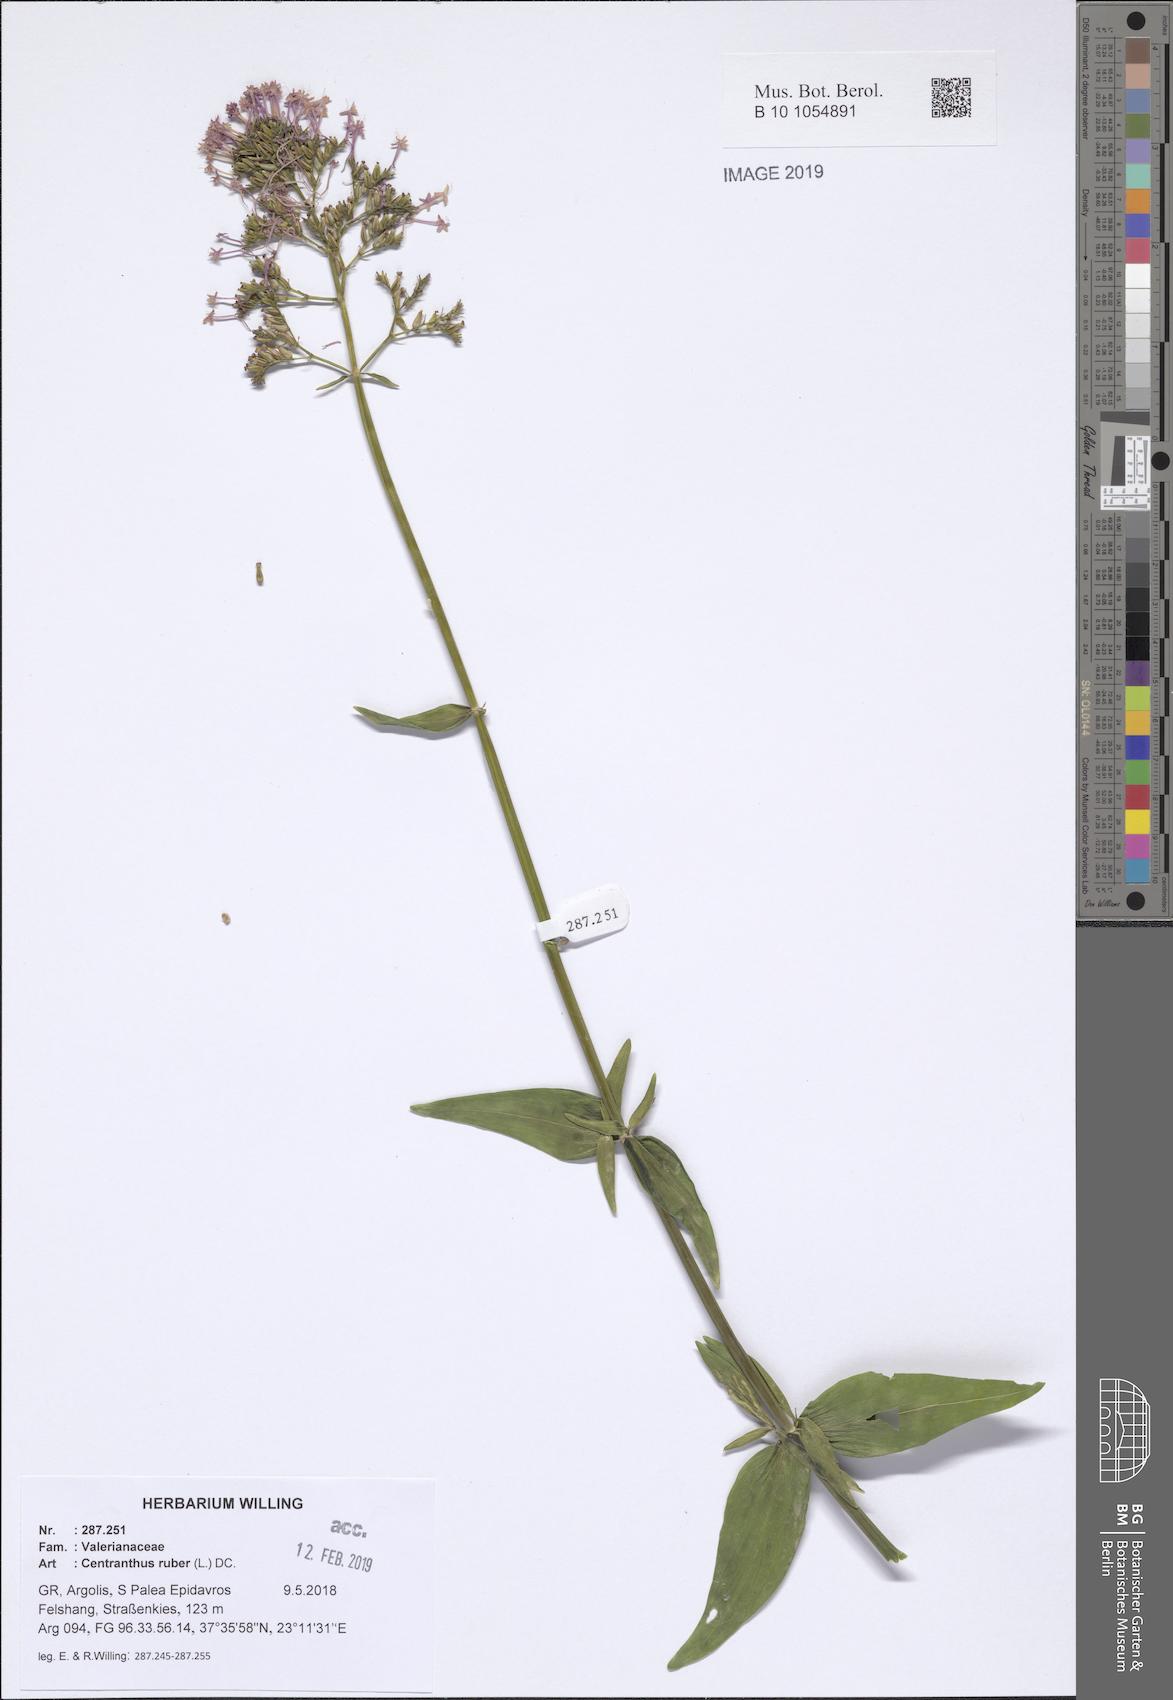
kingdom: Plantae
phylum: Tracheophyta
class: Magnoliopsida
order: Dipsacales
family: Caprifoliaceae
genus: Centranthus
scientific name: Centranthus ruber
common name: Red valerian
